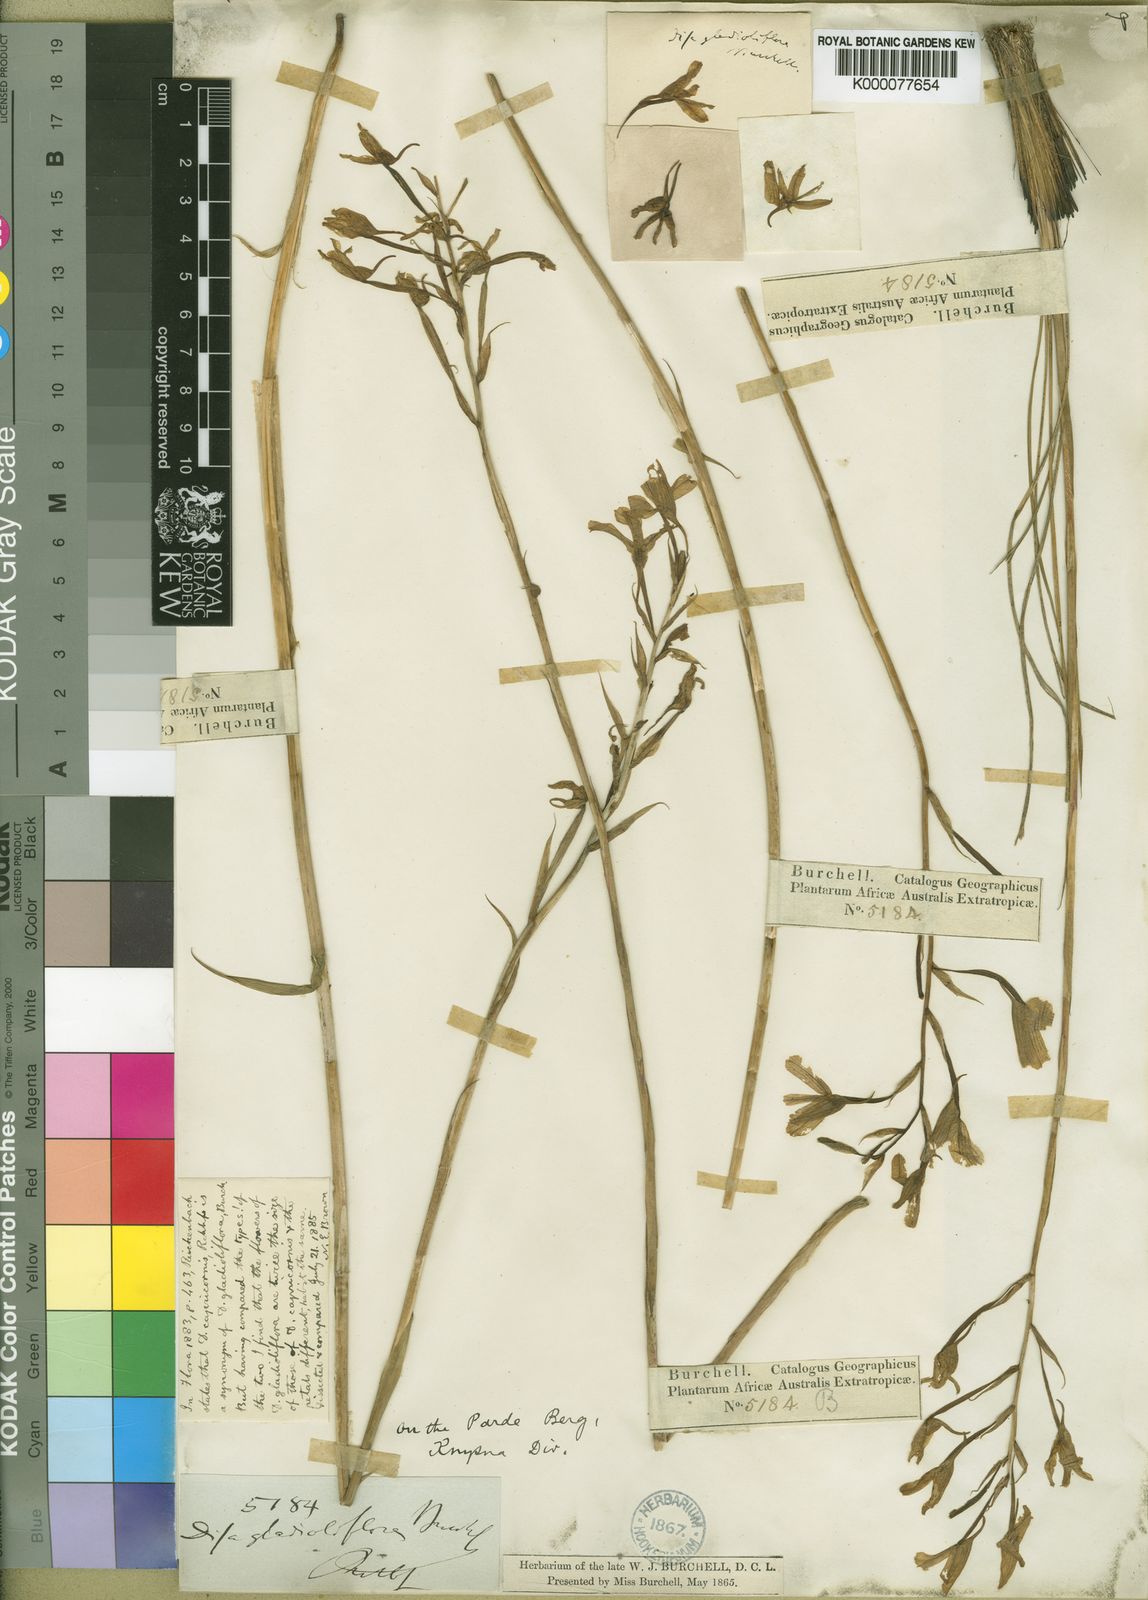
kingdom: Plantae
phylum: Tracheophyta
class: Liliopsida
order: Asparagales
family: Orchidaceae
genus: Disa
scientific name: Disa gladioliflora
